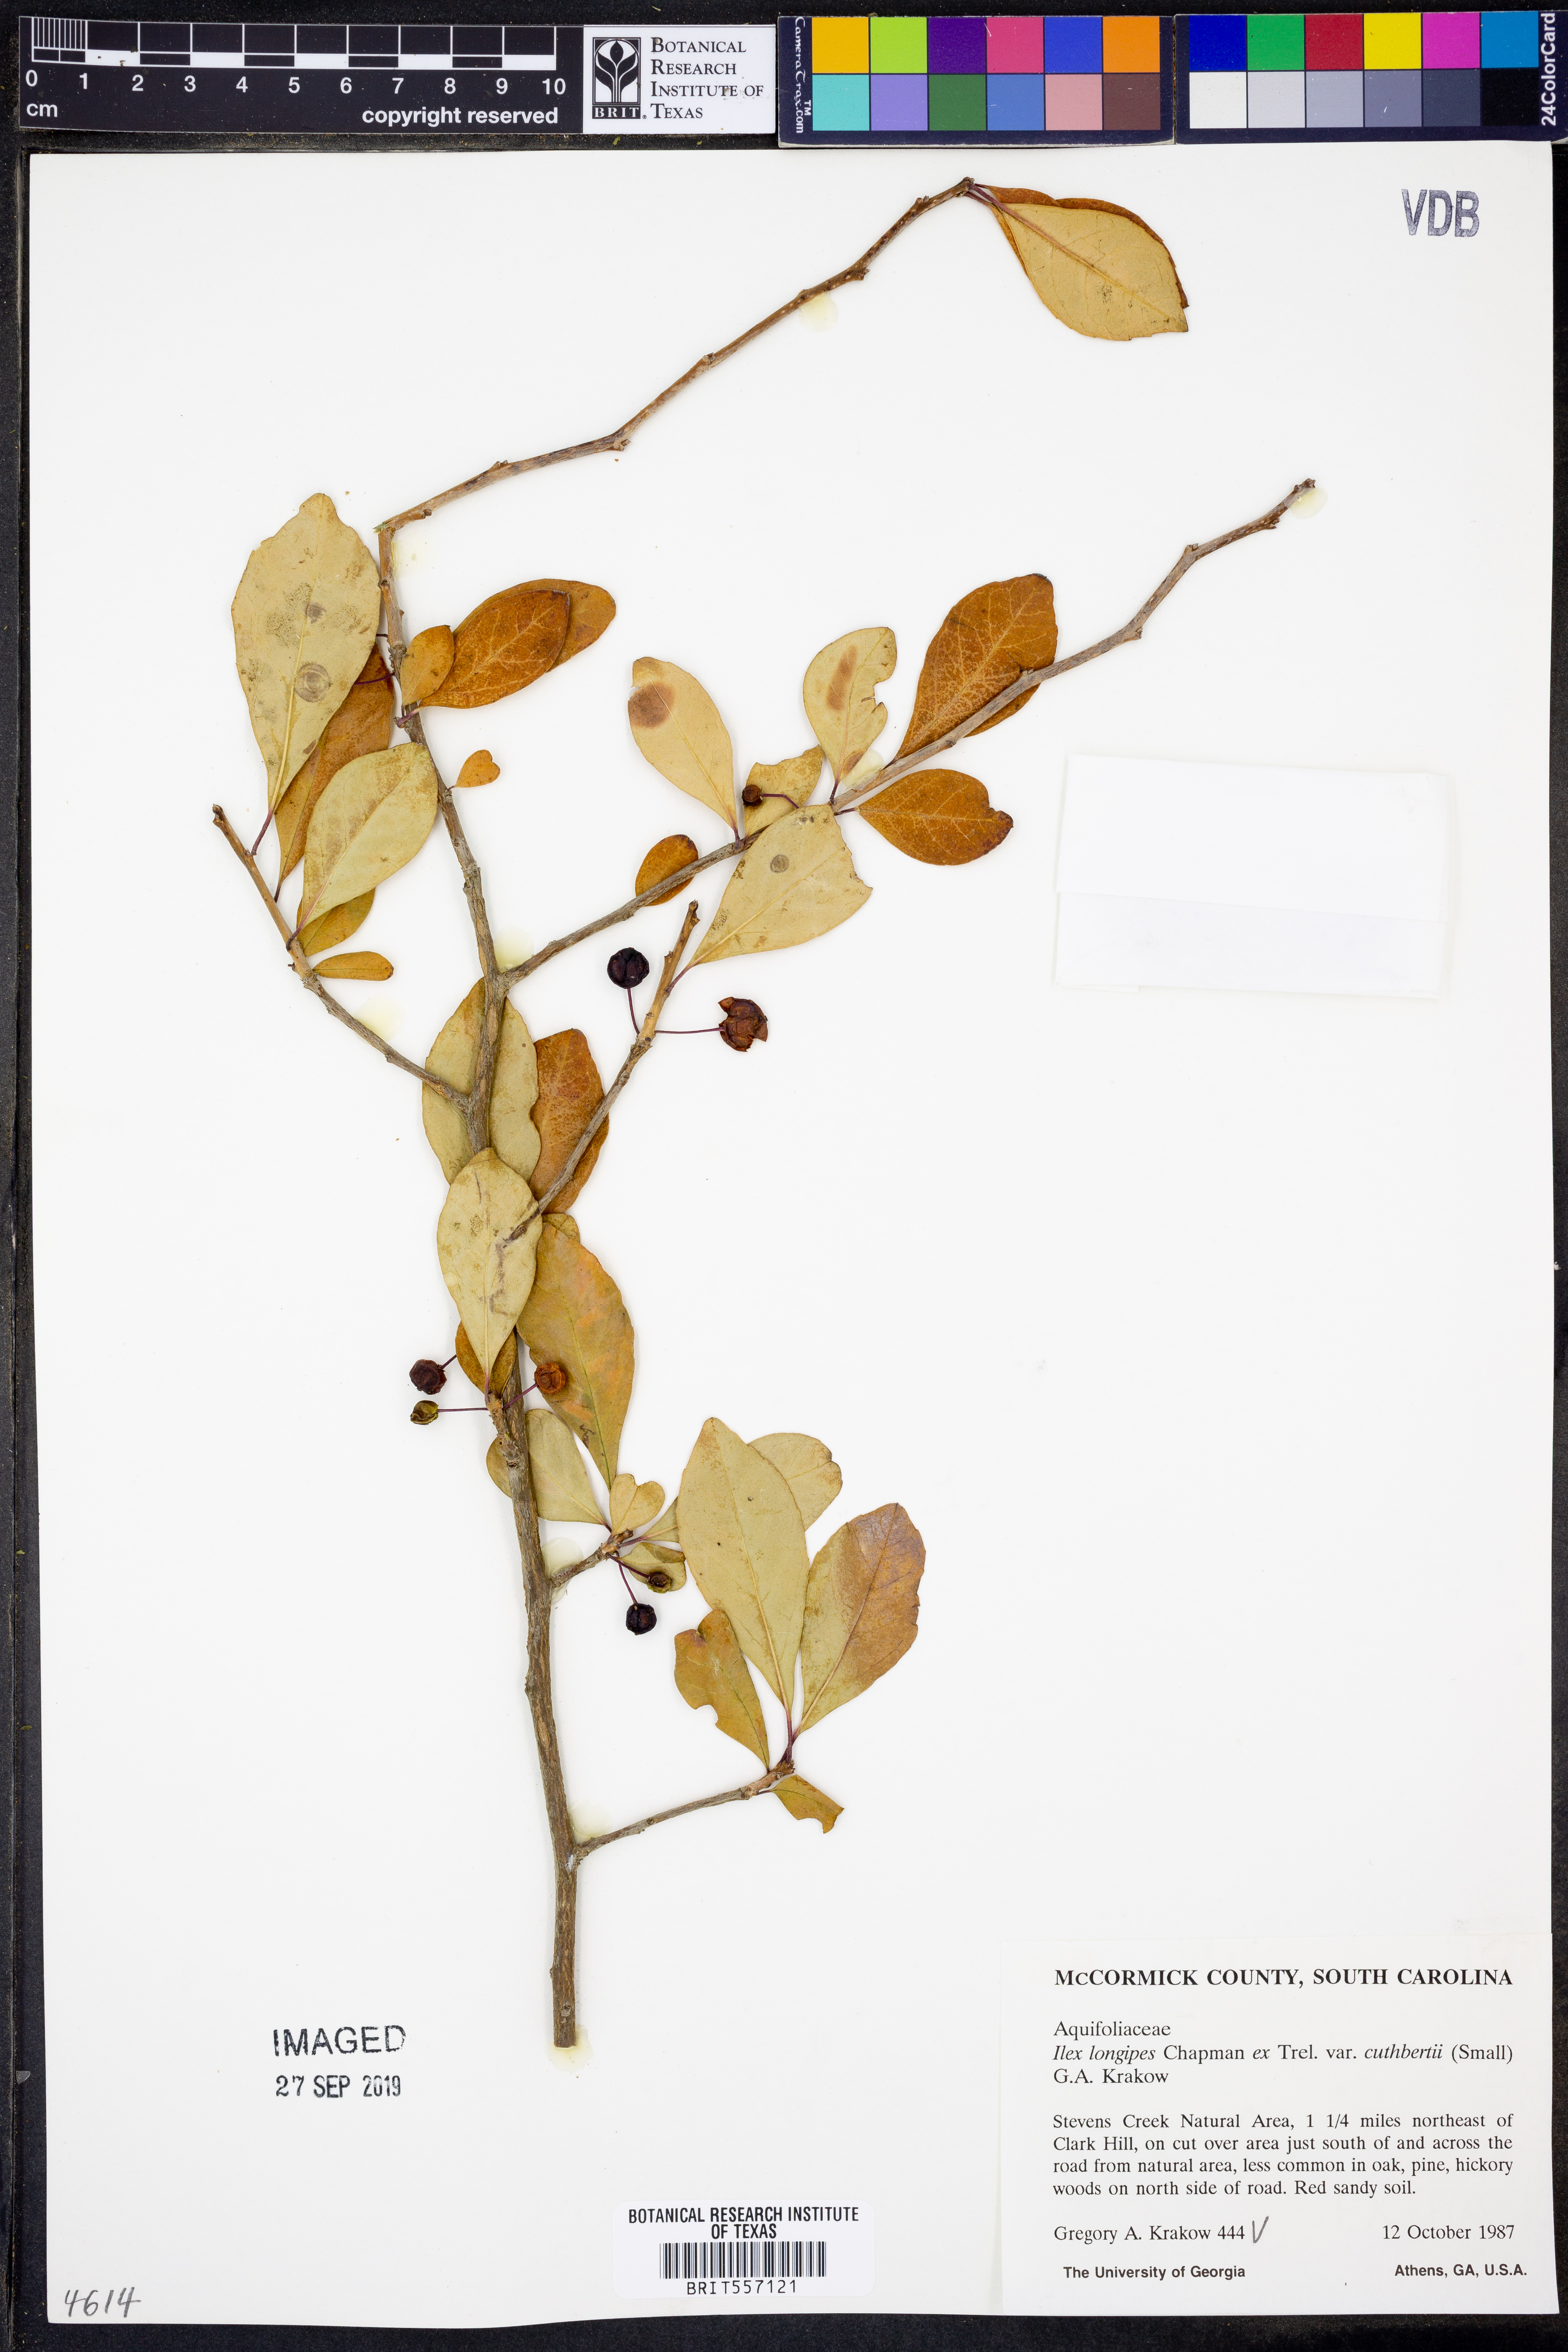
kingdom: Plantae
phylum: Tracheophyta
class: Magnoliopsida
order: Aquifoliales
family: Aquifoliaceae
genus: Ilex
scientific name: Ilex longipes
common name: Georgia holly
